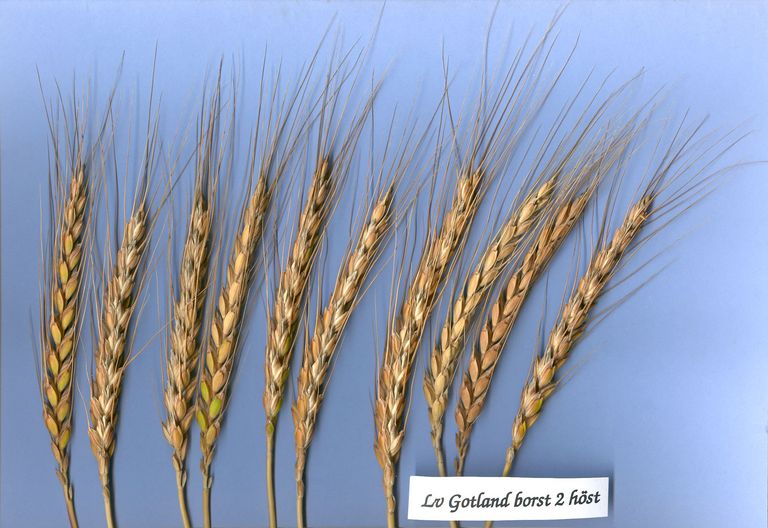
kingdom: Plantae
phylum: Tracheophyta
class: Liliopsida
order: Poales
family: Poaceae
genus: Triticum
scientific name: Triticum aestivum
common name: Common wheat
